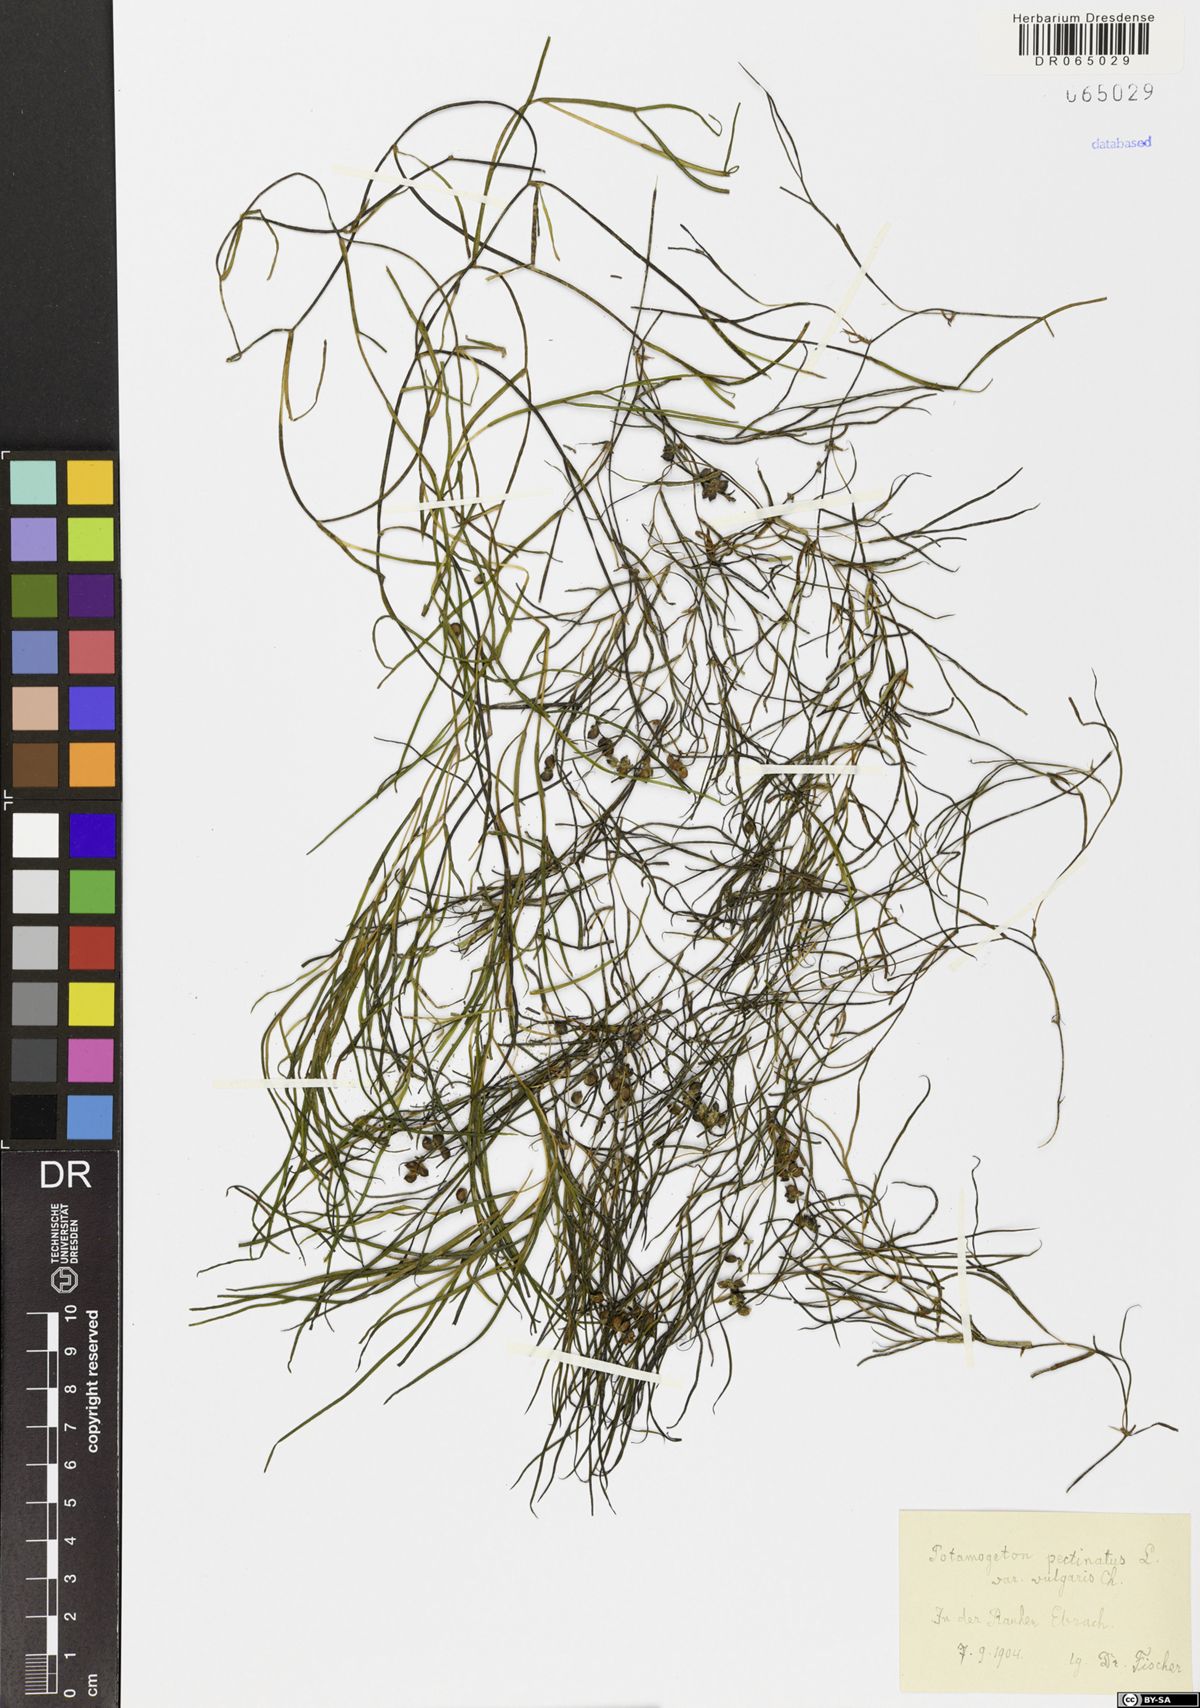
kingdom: Plantae
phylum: Tracheophyta
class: Liliopsida
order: Alismatales
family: Potamogetonaceae
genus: Stuckenia
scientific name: Stuckenia pectinata
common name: Sago pondweed
